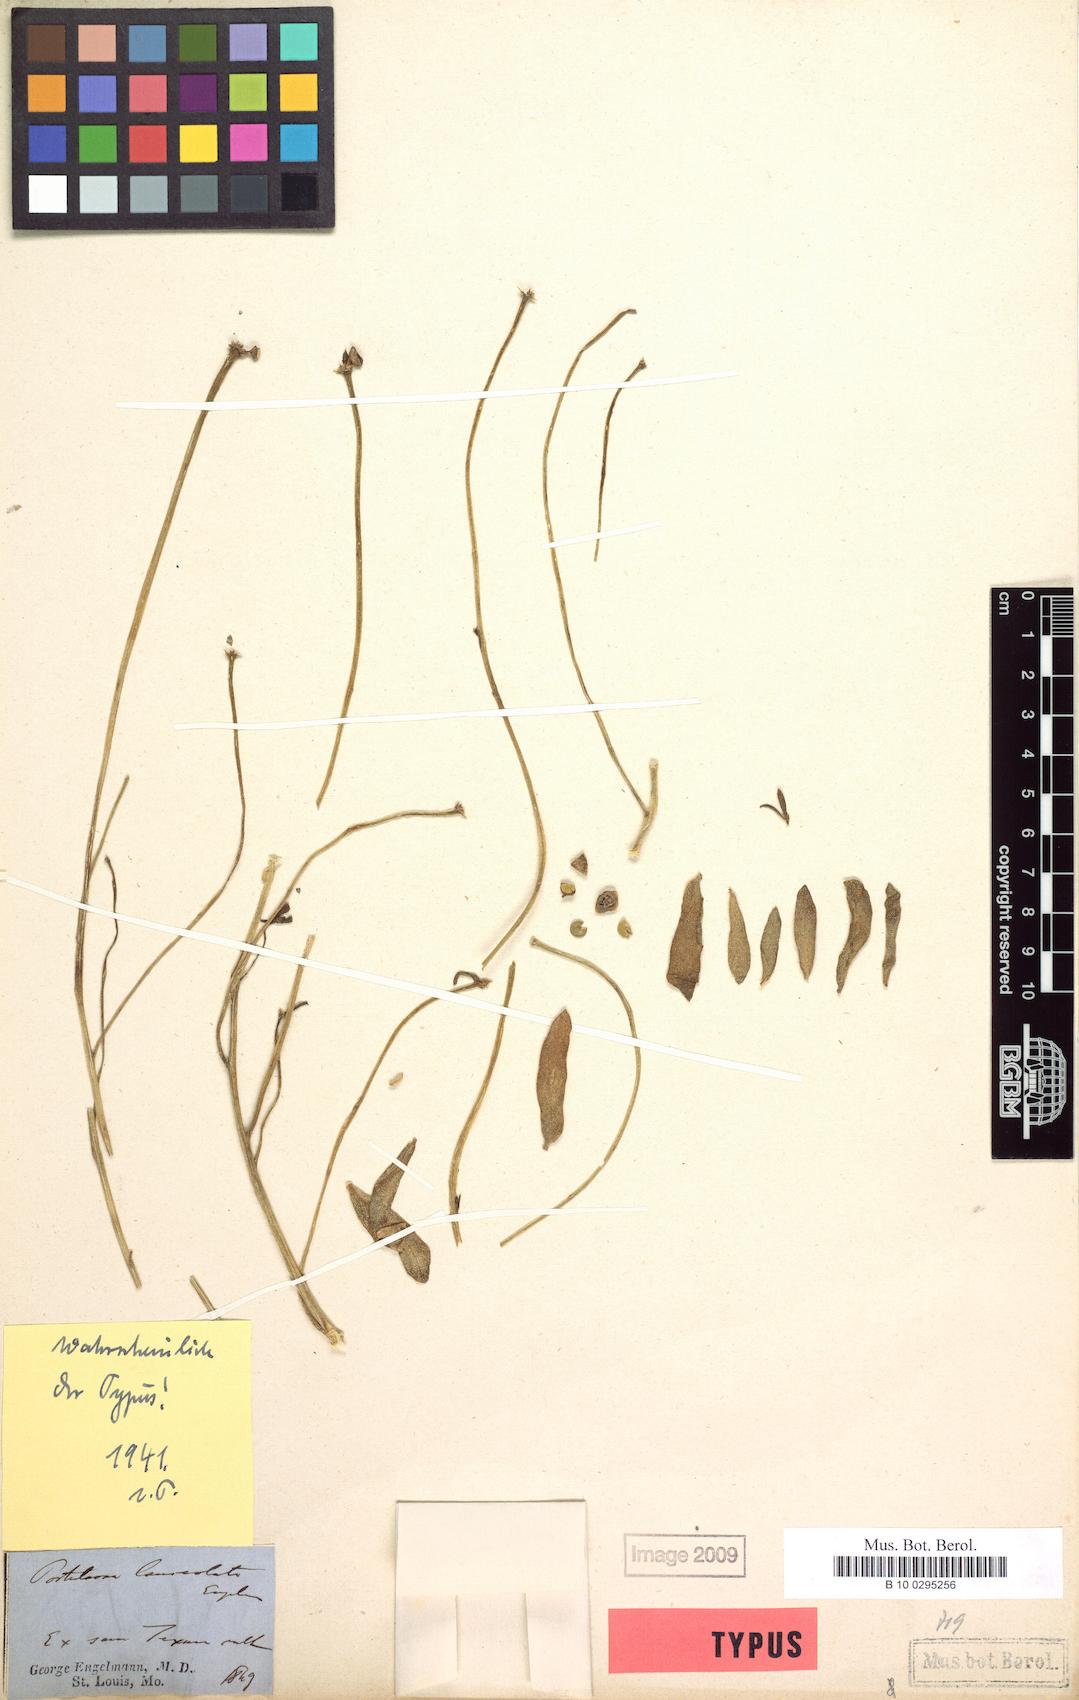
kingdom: Plantae
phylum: Tracheophyta
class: Magnoliopsida
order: Caryophyllales
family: Portulacaceae
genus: Portulaca
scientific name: Portulaca umbraticola
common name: Wingpod purslane
